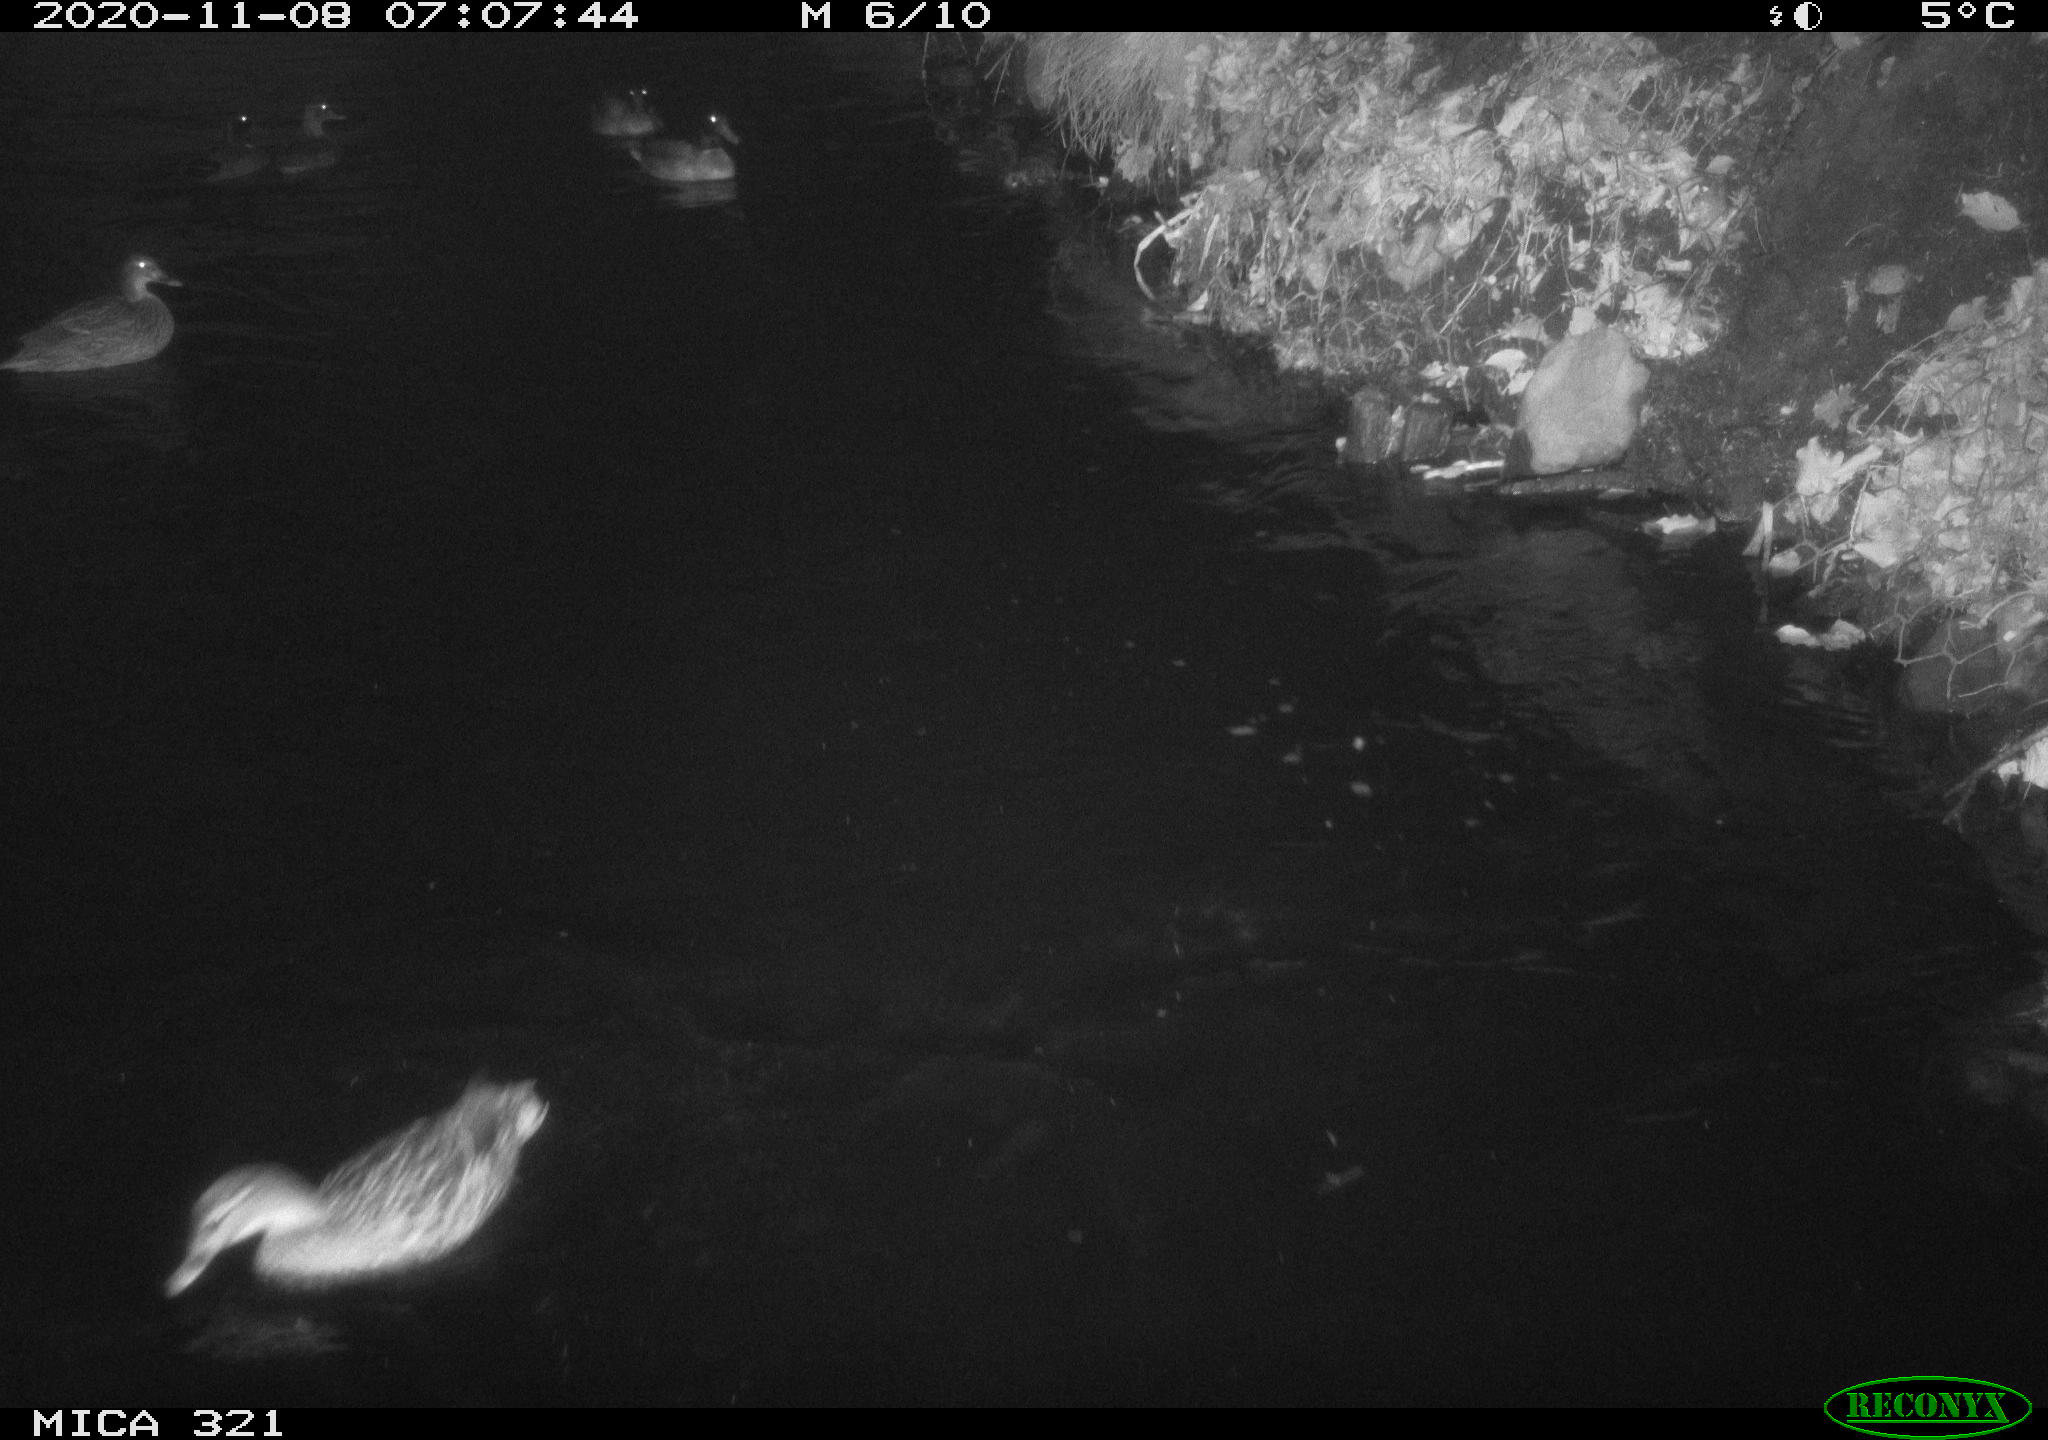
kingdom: Animalia
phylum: Chordata
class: Aves
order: Anseriformes
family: Anatidae
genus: Anas
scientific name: Anas platyrhynchos
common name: Mallard
